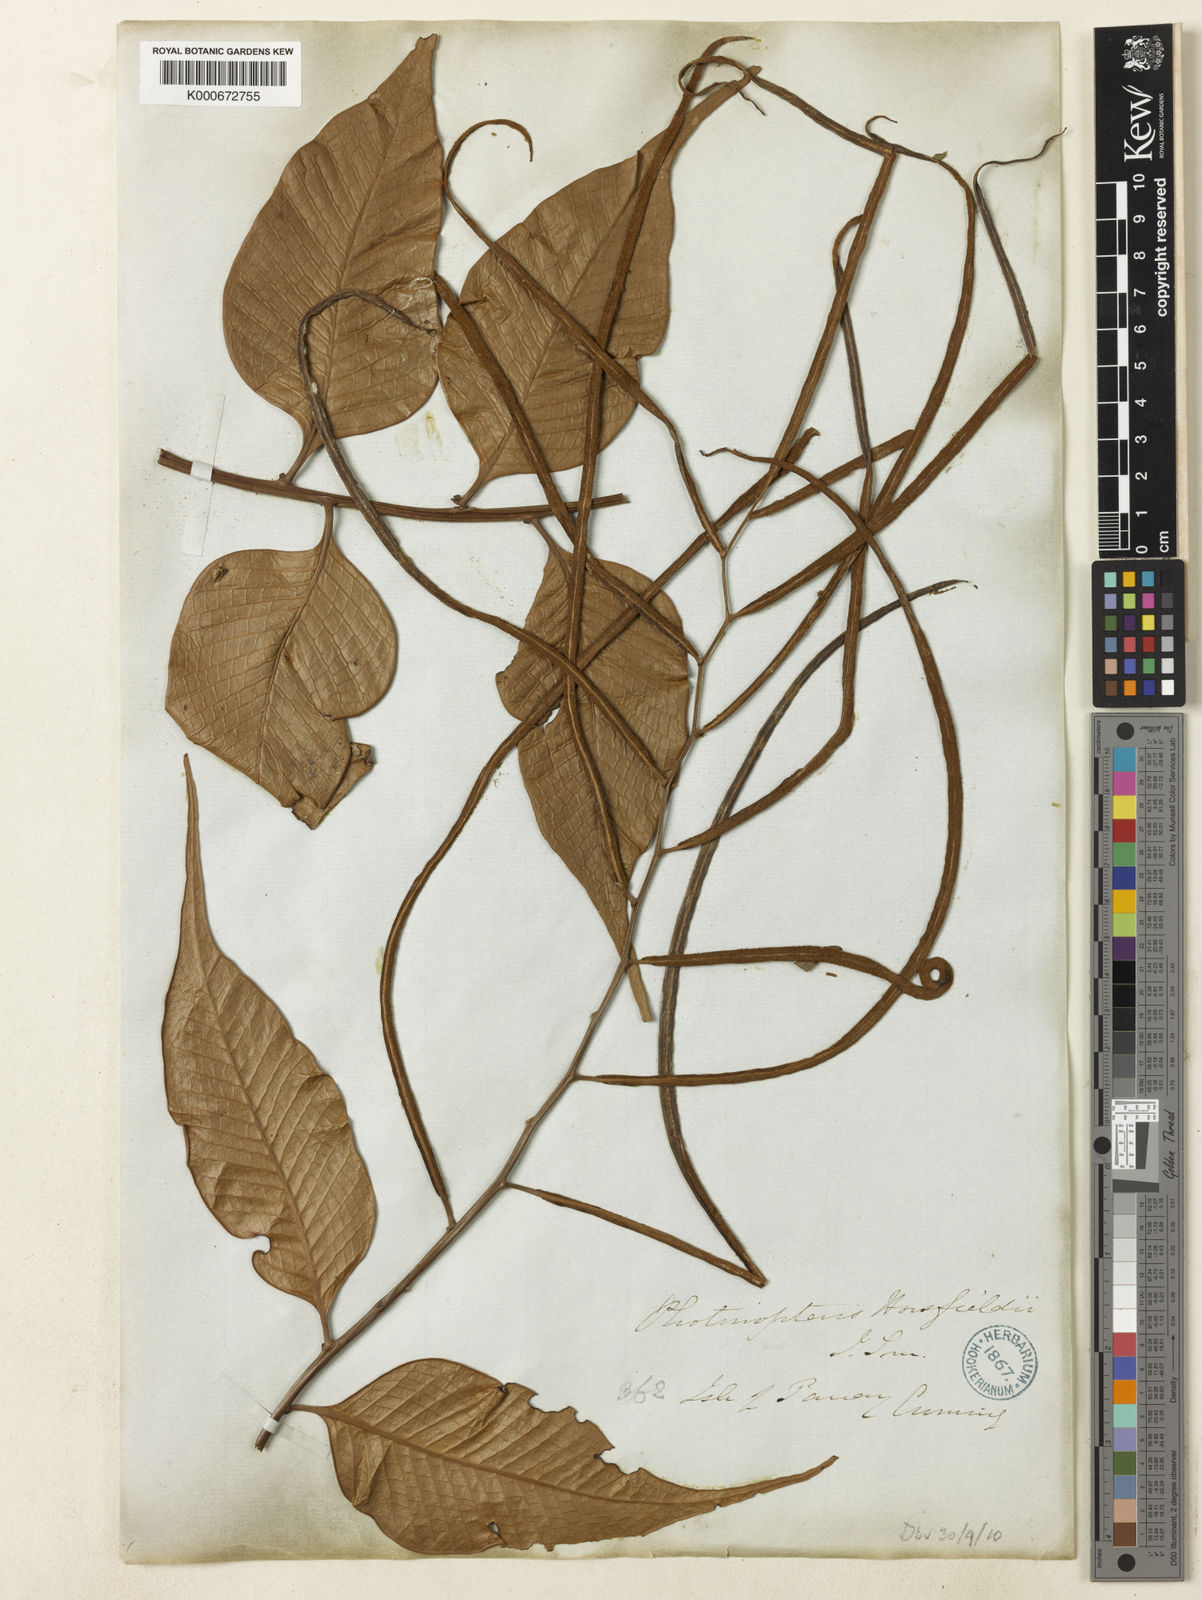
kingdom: Plantae
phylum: Tracheophyta
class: Polypodiopsida
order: Polypodiales
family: Polypodiaceae
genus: Drynaria
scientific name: Drynaria
